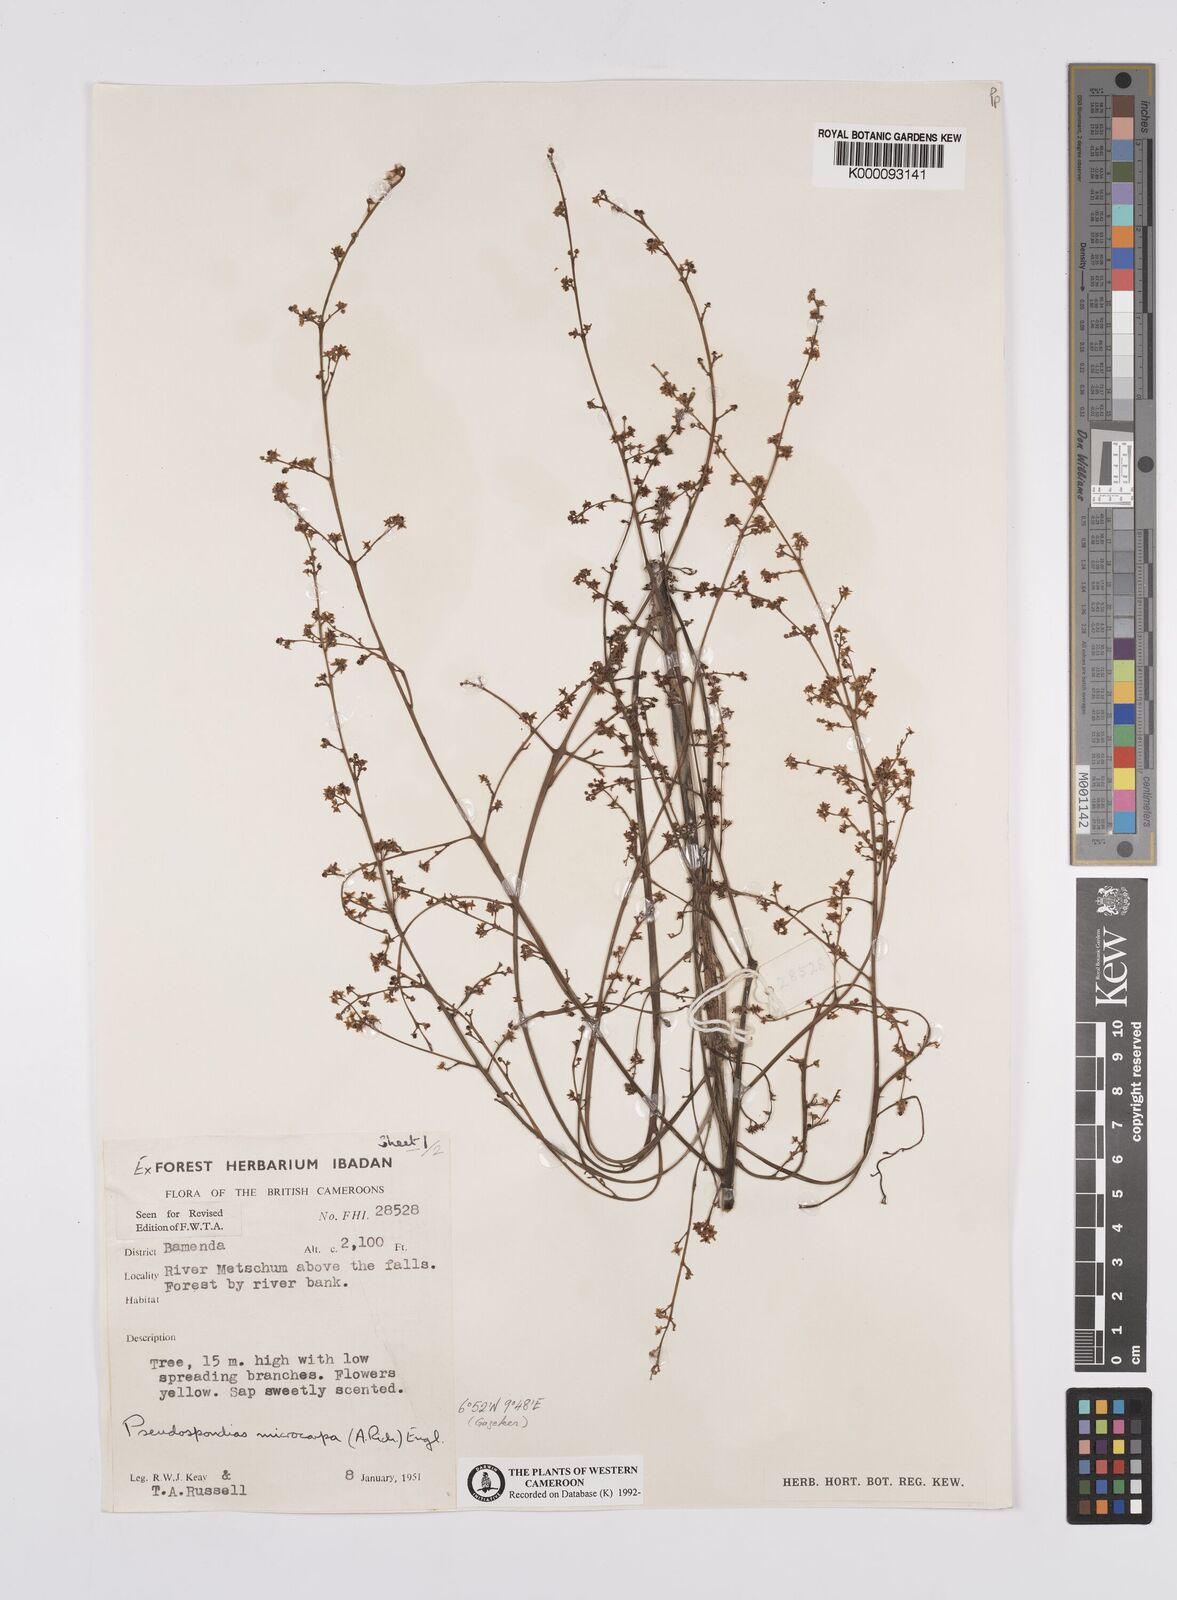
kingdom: Plantae
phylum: Tracheophyta
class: Magnoliopsida
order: Sapindales
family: Anacardiaceae
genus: Pseudospondias
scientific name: Pseudospondias microcarpa
